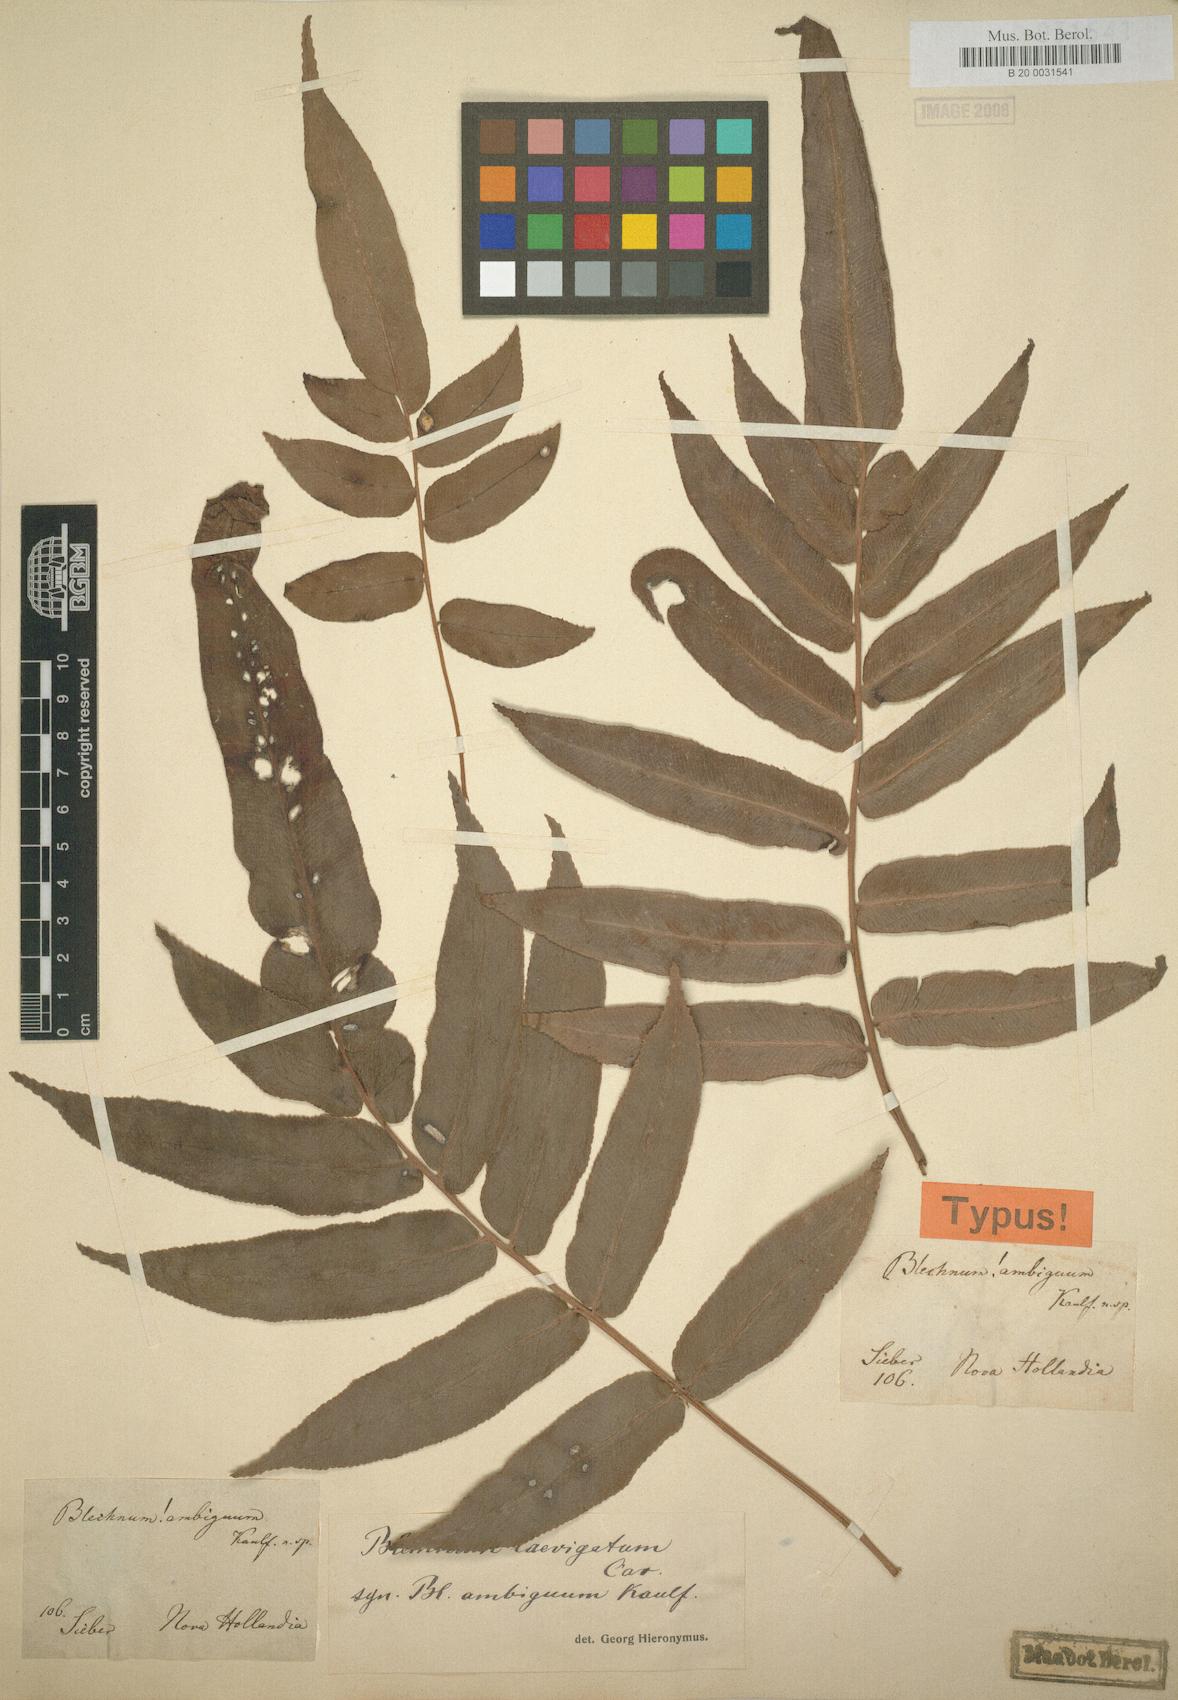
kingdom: Plantae
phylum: Tracheophyta
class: Polypodiopsida
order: Polypodiales
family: Blechnaceae
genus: Blechnum
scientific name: Blechnum laevigatum
